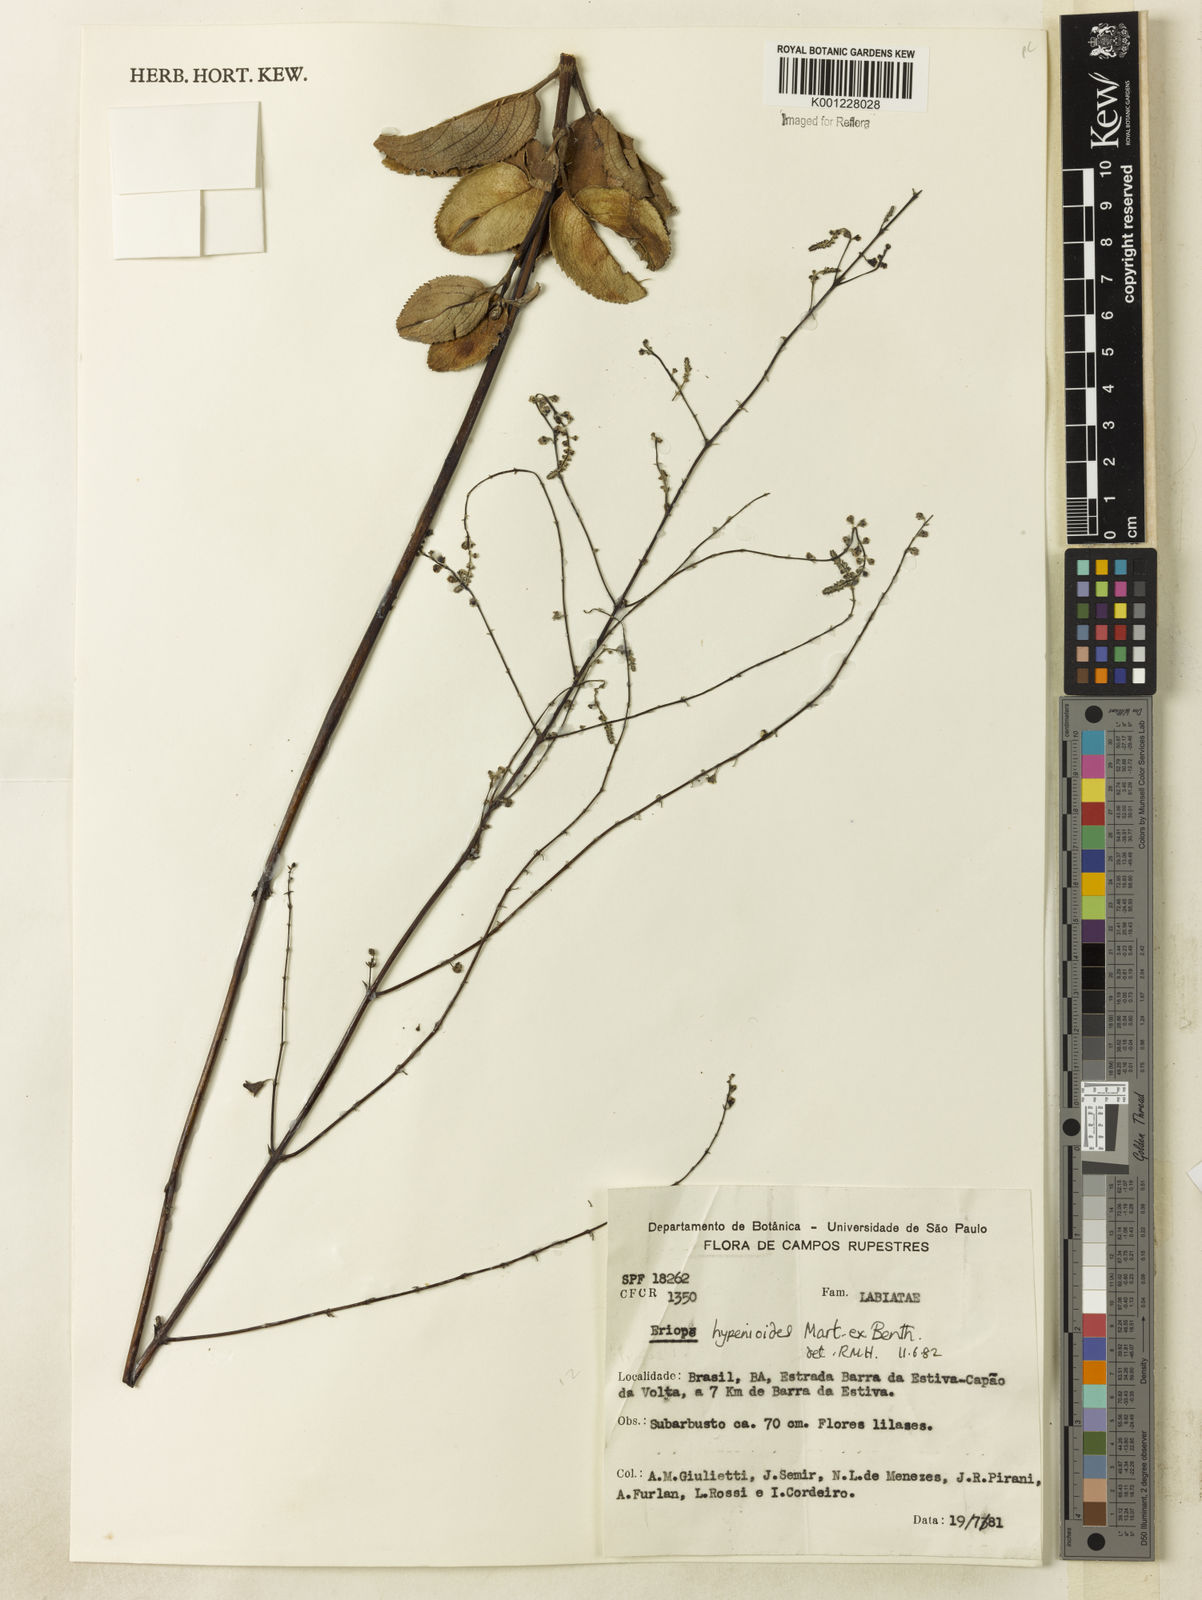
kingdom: Plantae
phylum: Tracheophyta
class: Magnoliopsida
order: Lamiales
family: Lamiaceae
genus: Eriope
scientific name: Eriope hypenioides
